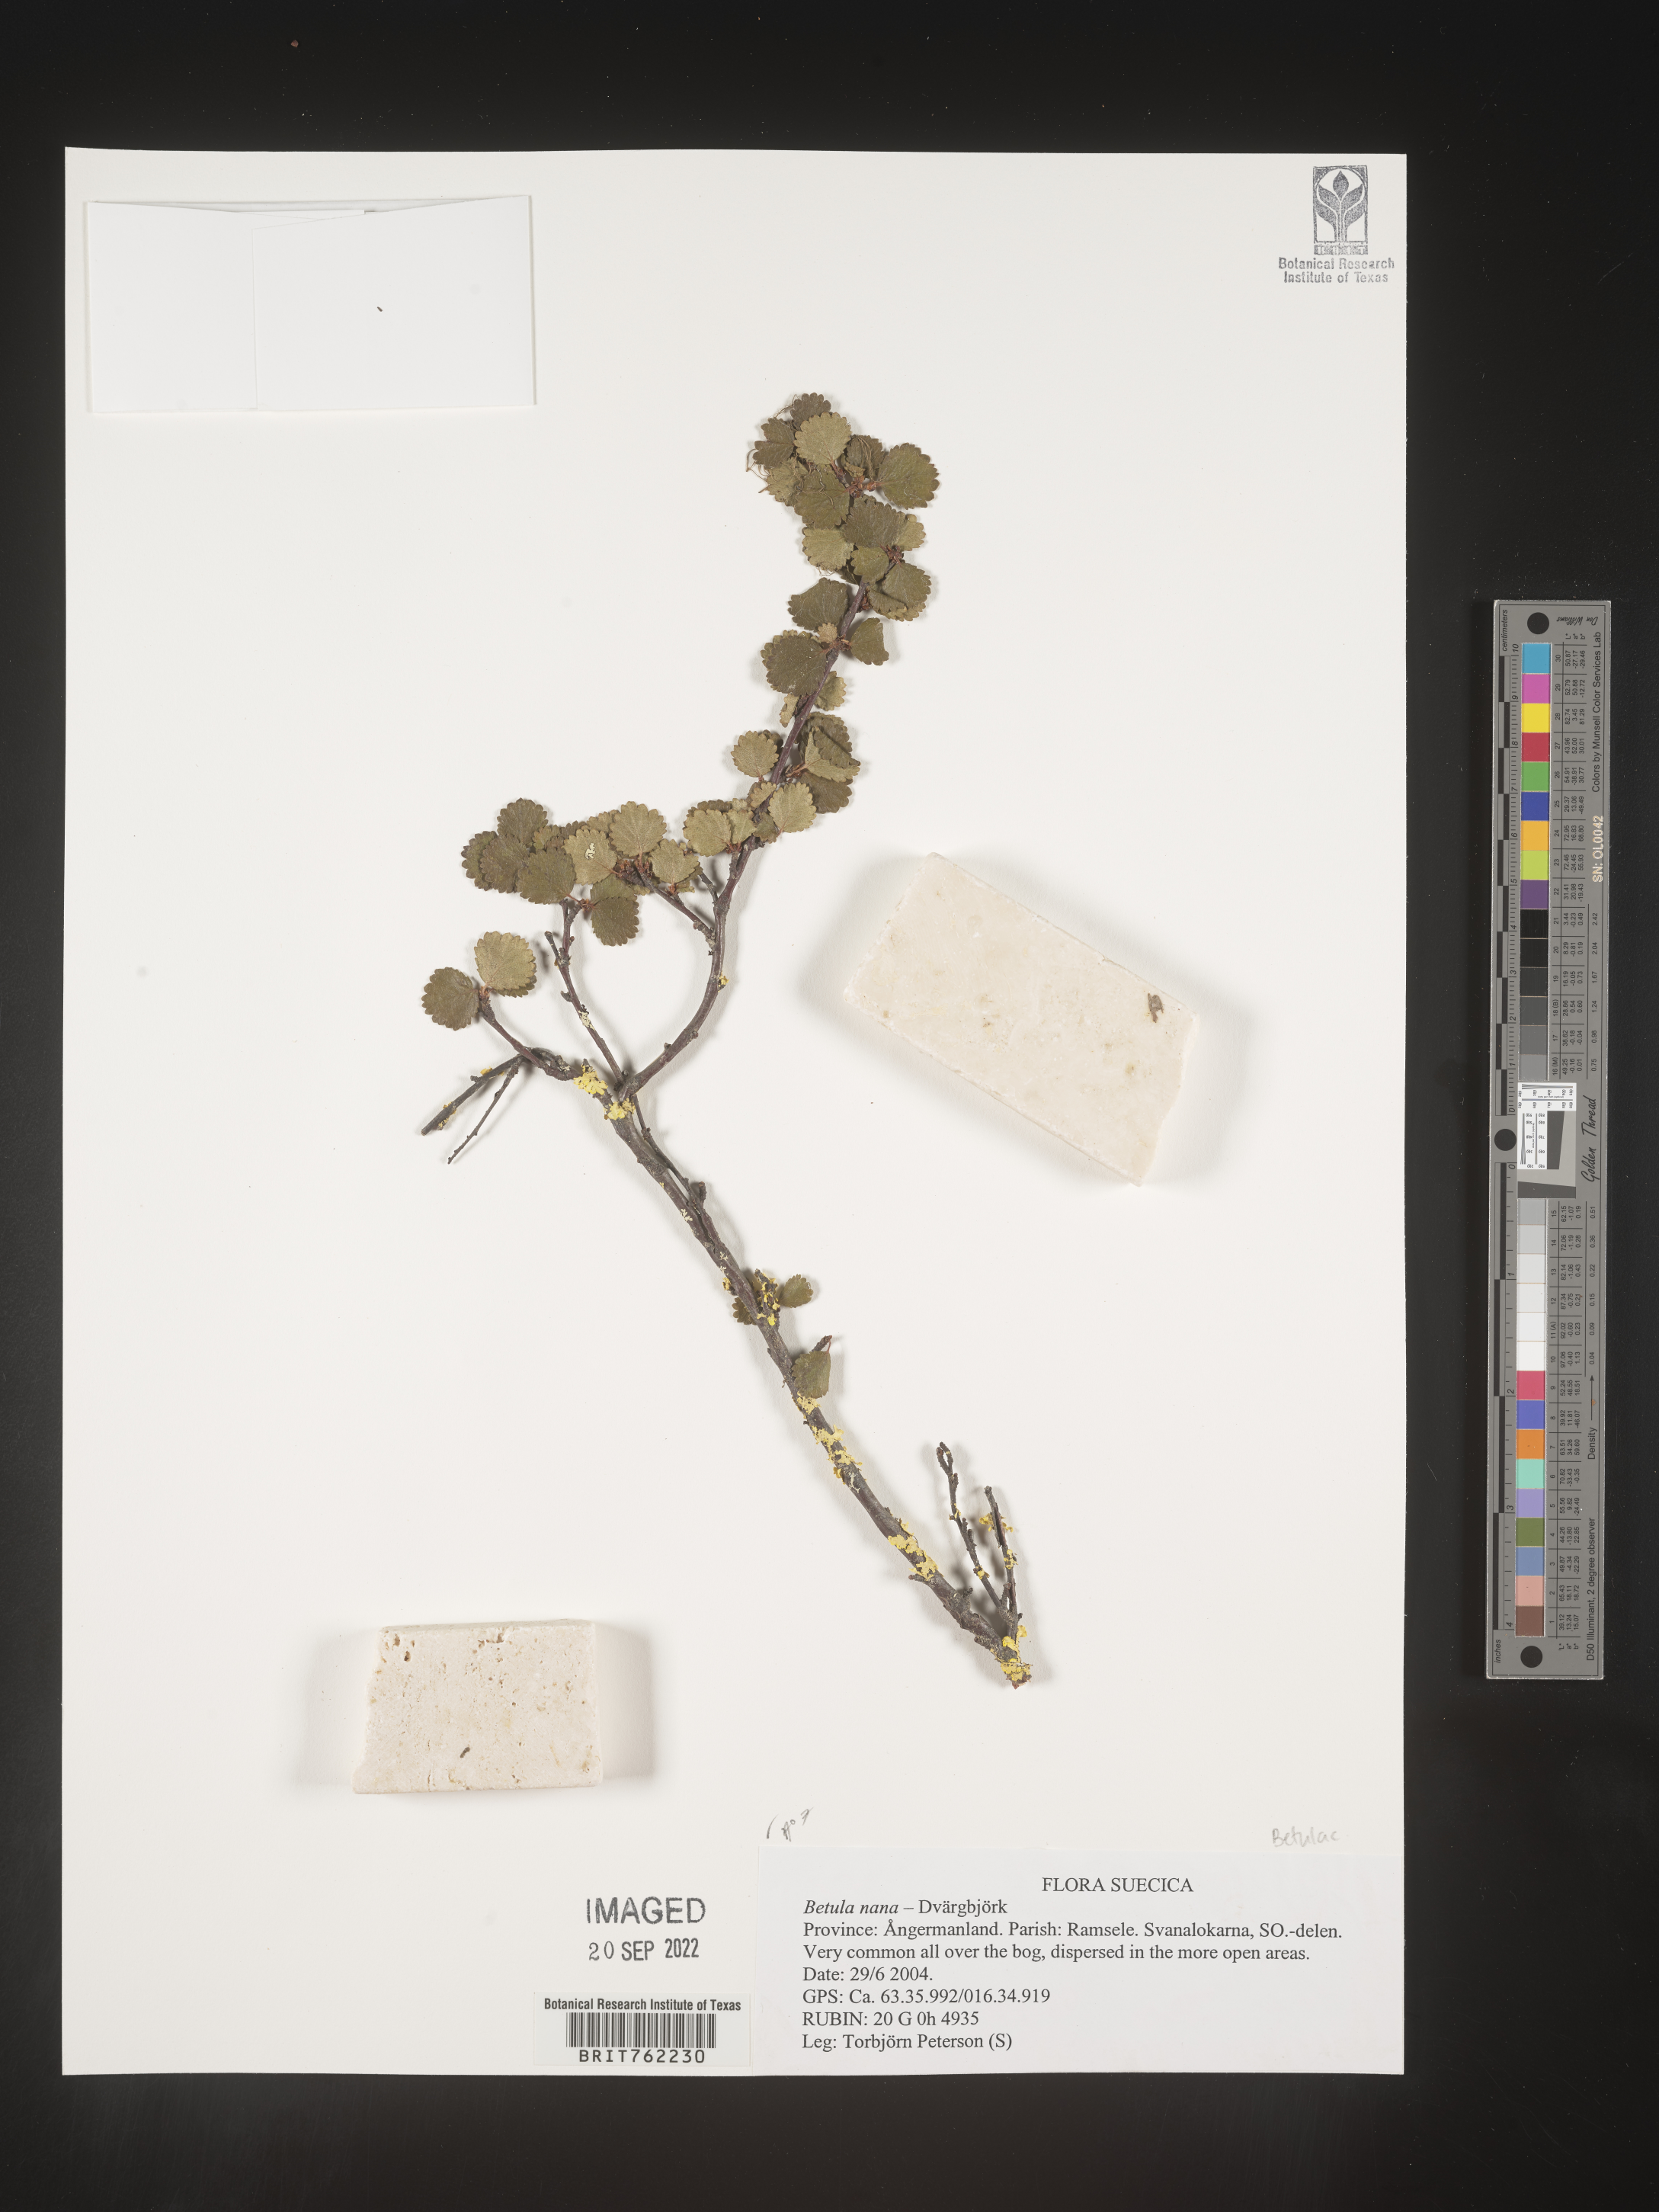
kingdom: Plantae
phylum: Tracheophyta
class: Magnoliopsida
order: Fagales
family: Betulaceae
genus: Betula
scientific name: Betula
